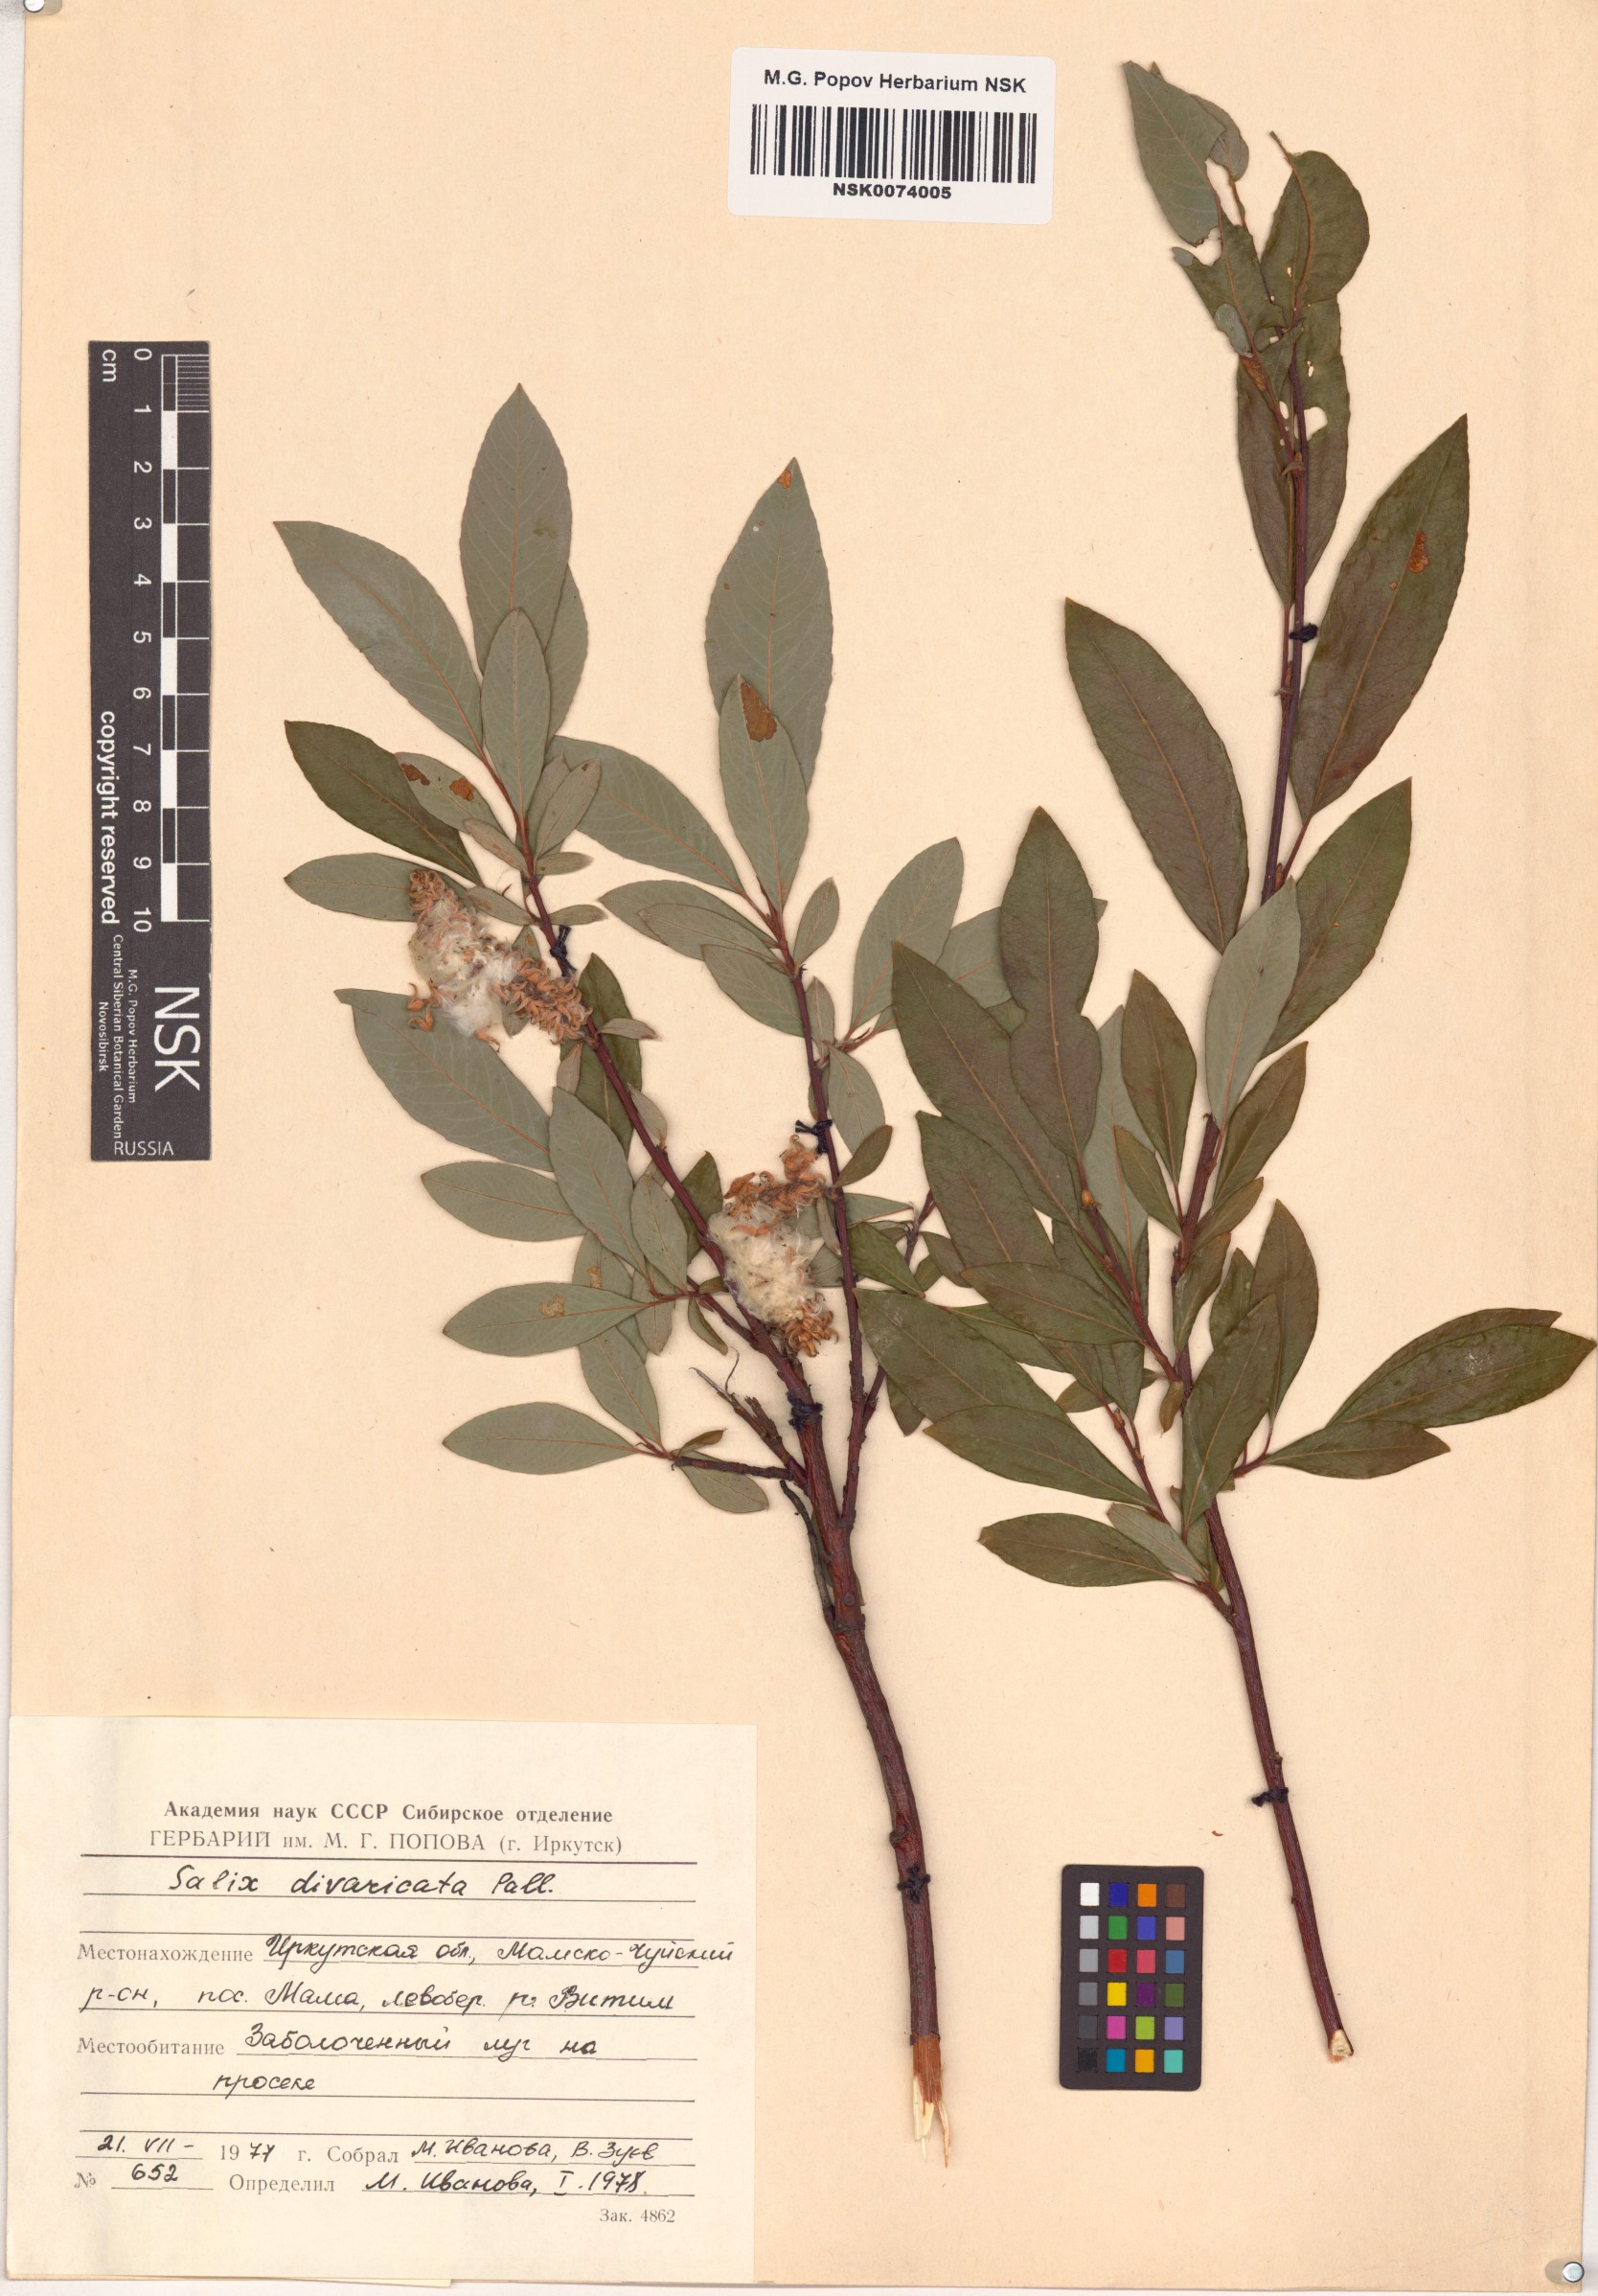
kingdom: Plantae
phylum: Tracheophyta
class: Magnoliopsida
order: Malpighiales
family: Salicaceae
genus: Salix
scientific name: Salix divaricata
